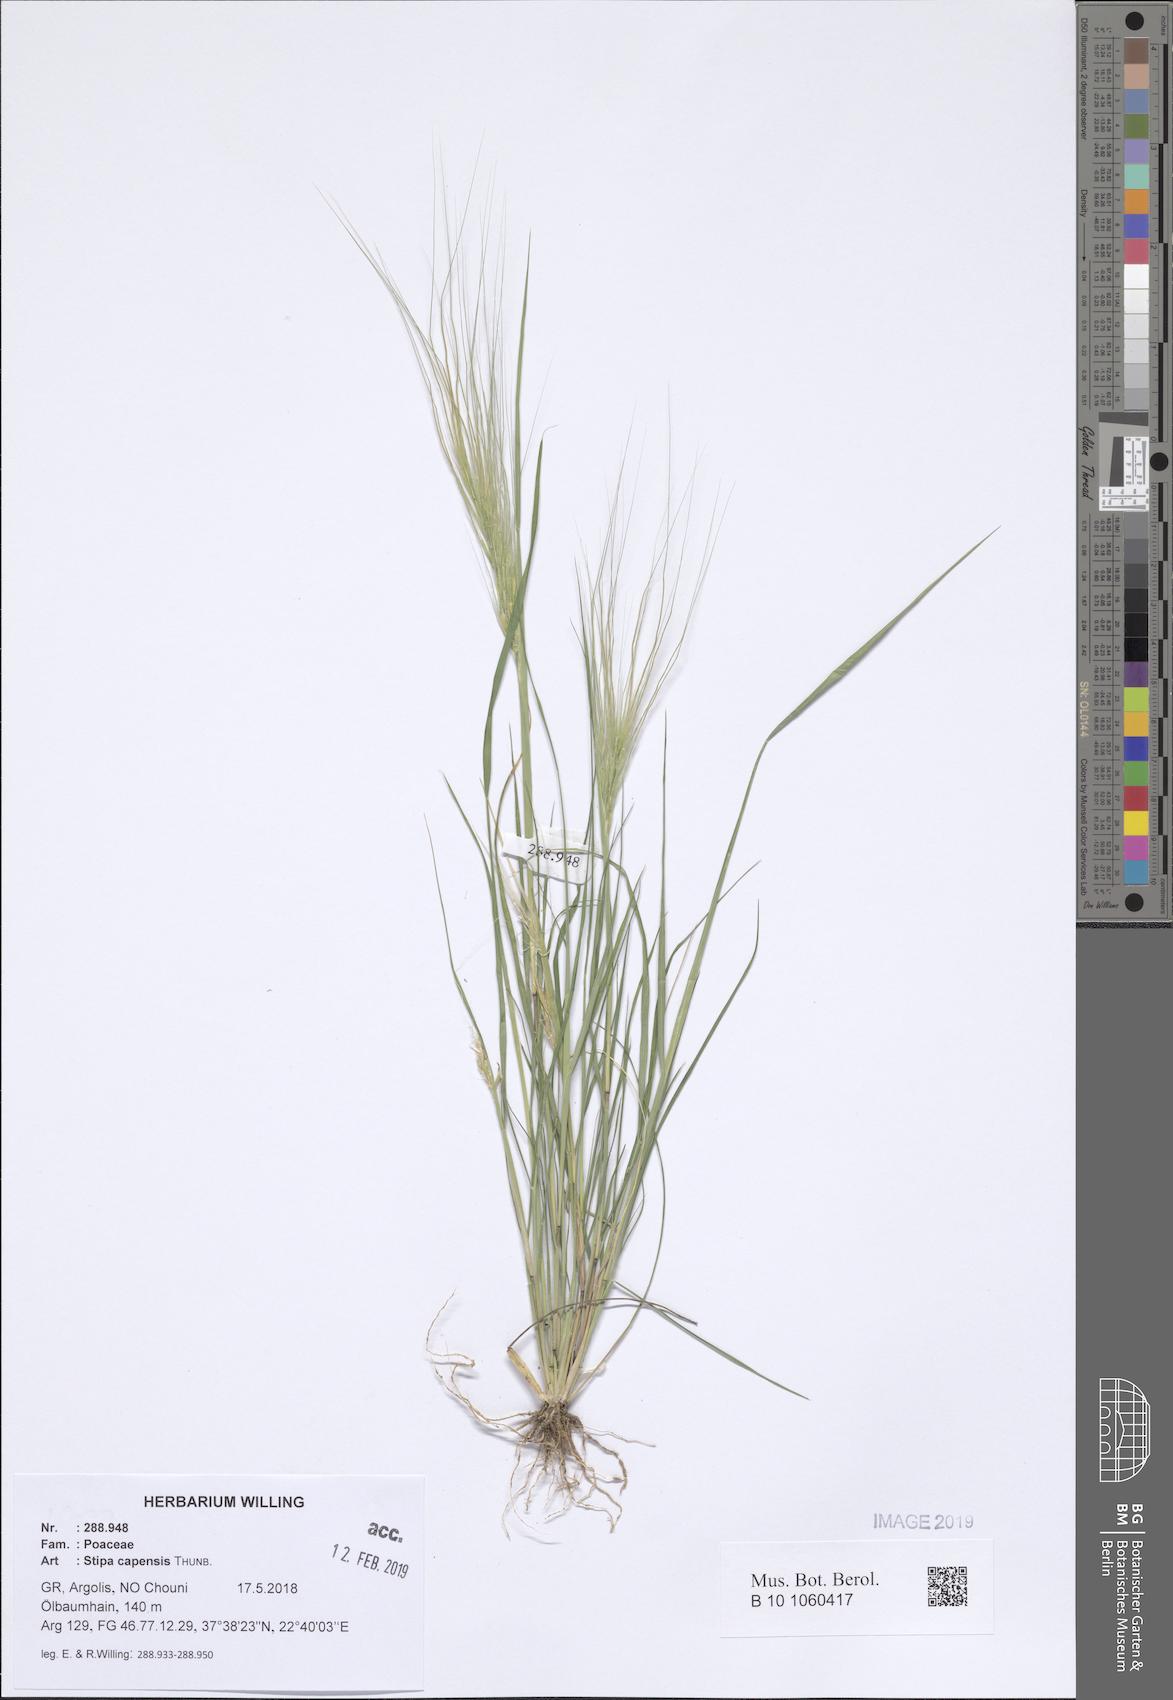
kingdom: Plantae
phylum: Tracheophyta
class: Liliopsida
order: Poales
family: Poaceae
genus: Stipellula
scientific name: Stipellula capensis
